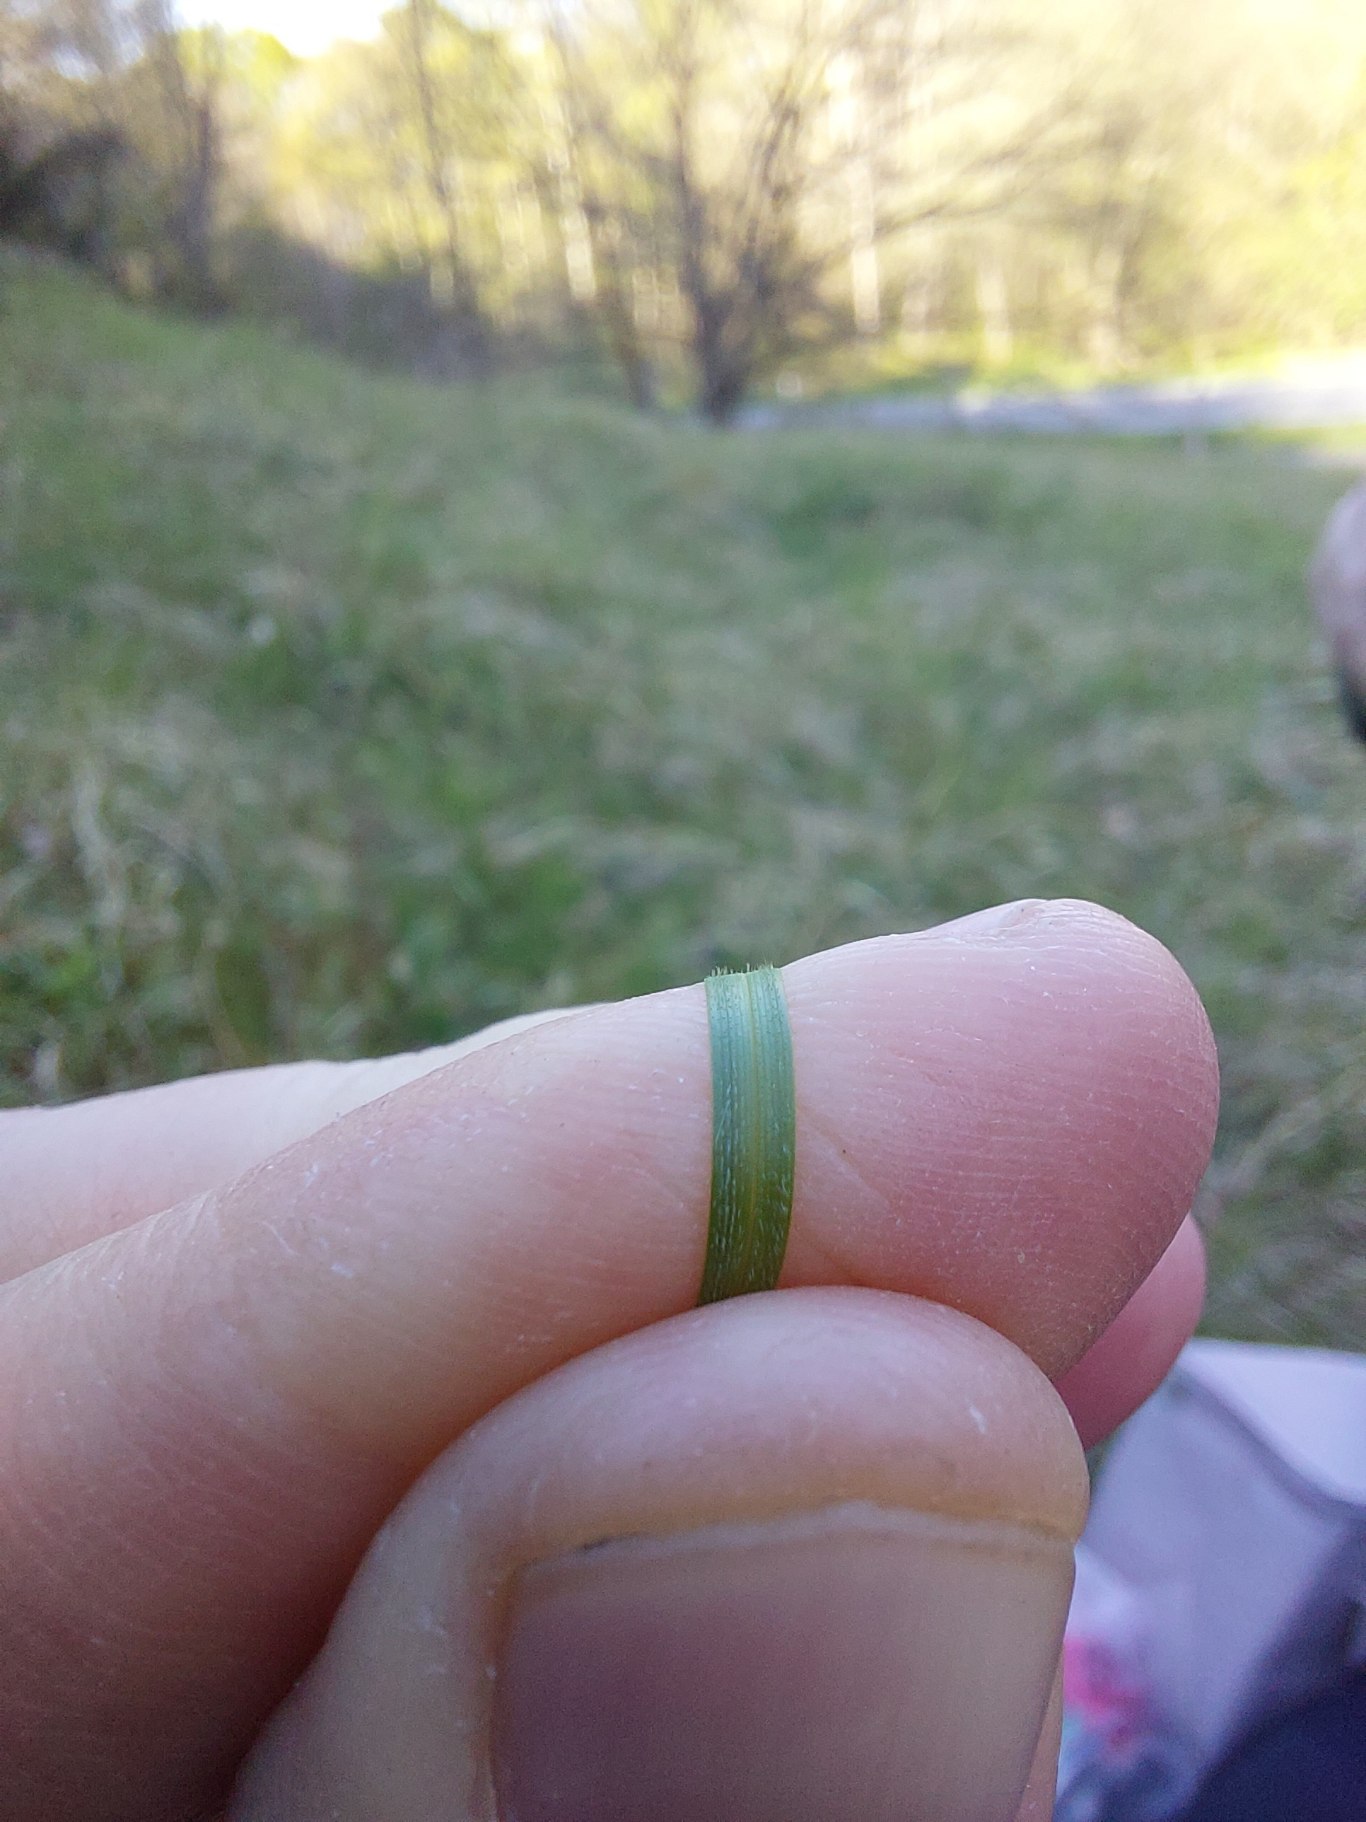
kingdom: Plantae
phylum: Tracheophyta
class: Liliopsida
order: Poales
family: Cyperaceae
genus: Carex
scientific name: Carex montana
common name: Bakke-star
